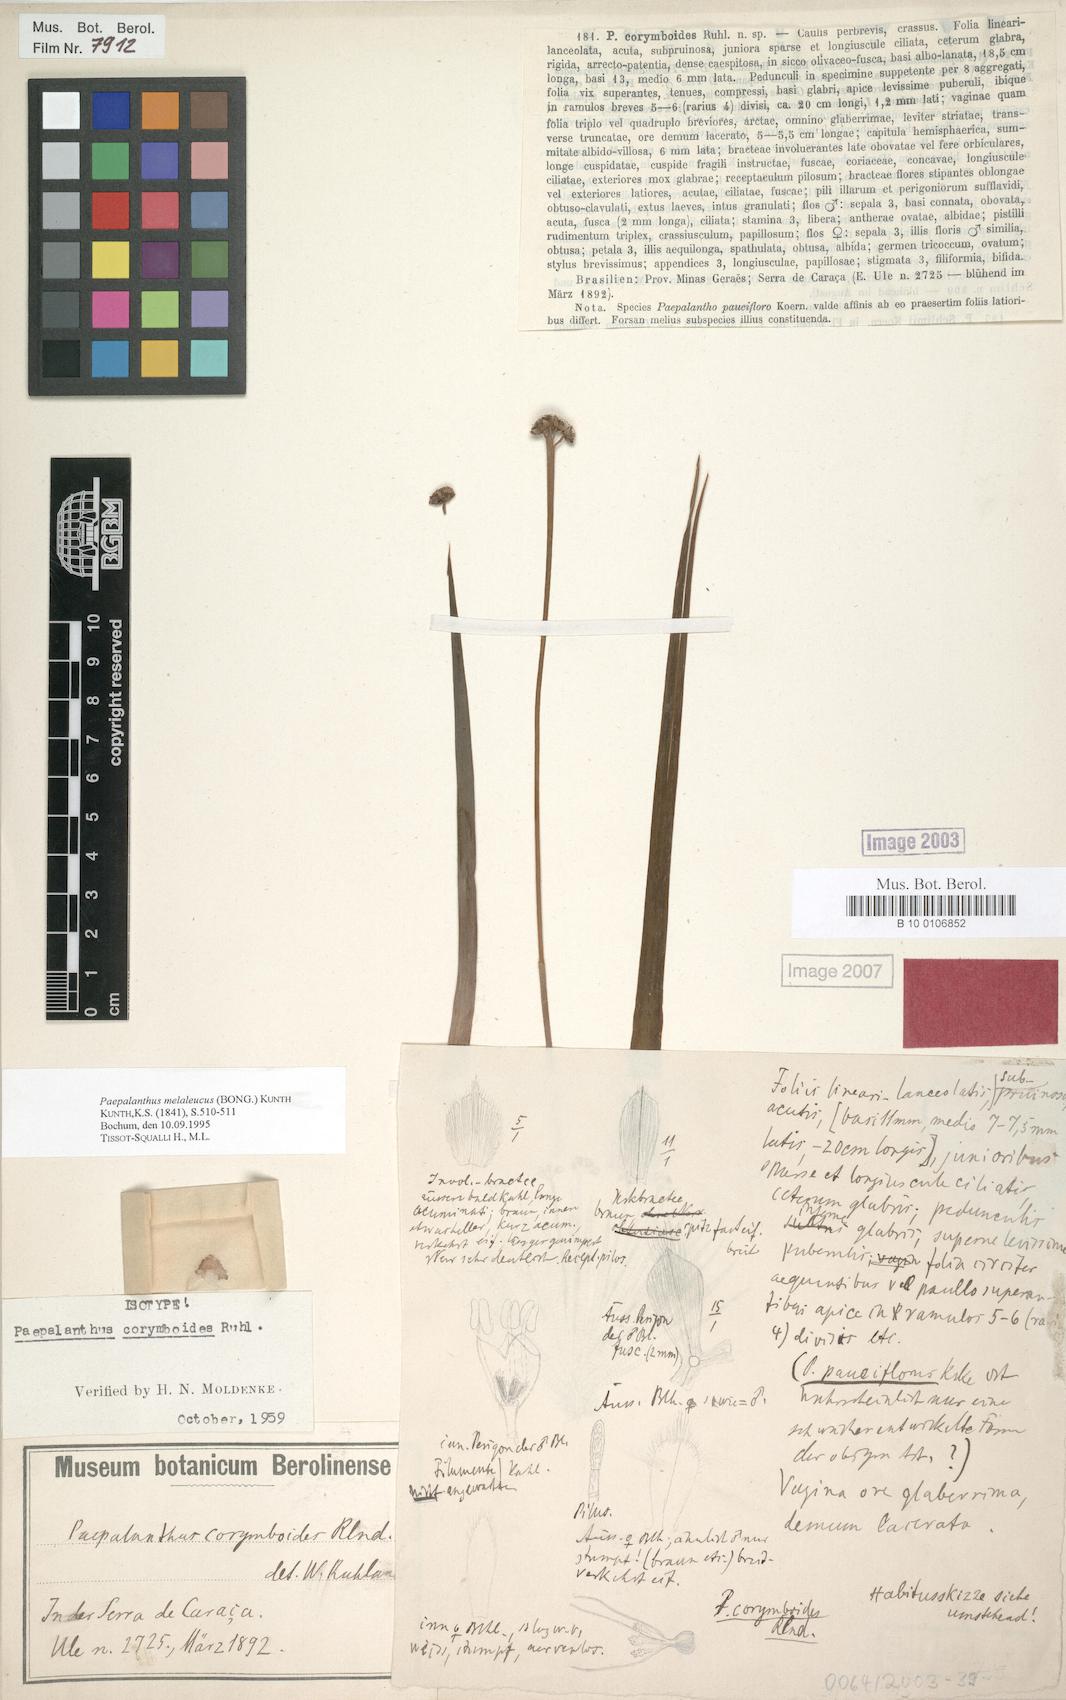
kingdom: Plantae
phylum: Tracheophyta
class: Liliopsida
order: Poales
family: Eriocaulaceae
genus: Paepalanthus
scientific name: Paepalanthus melaleucus
